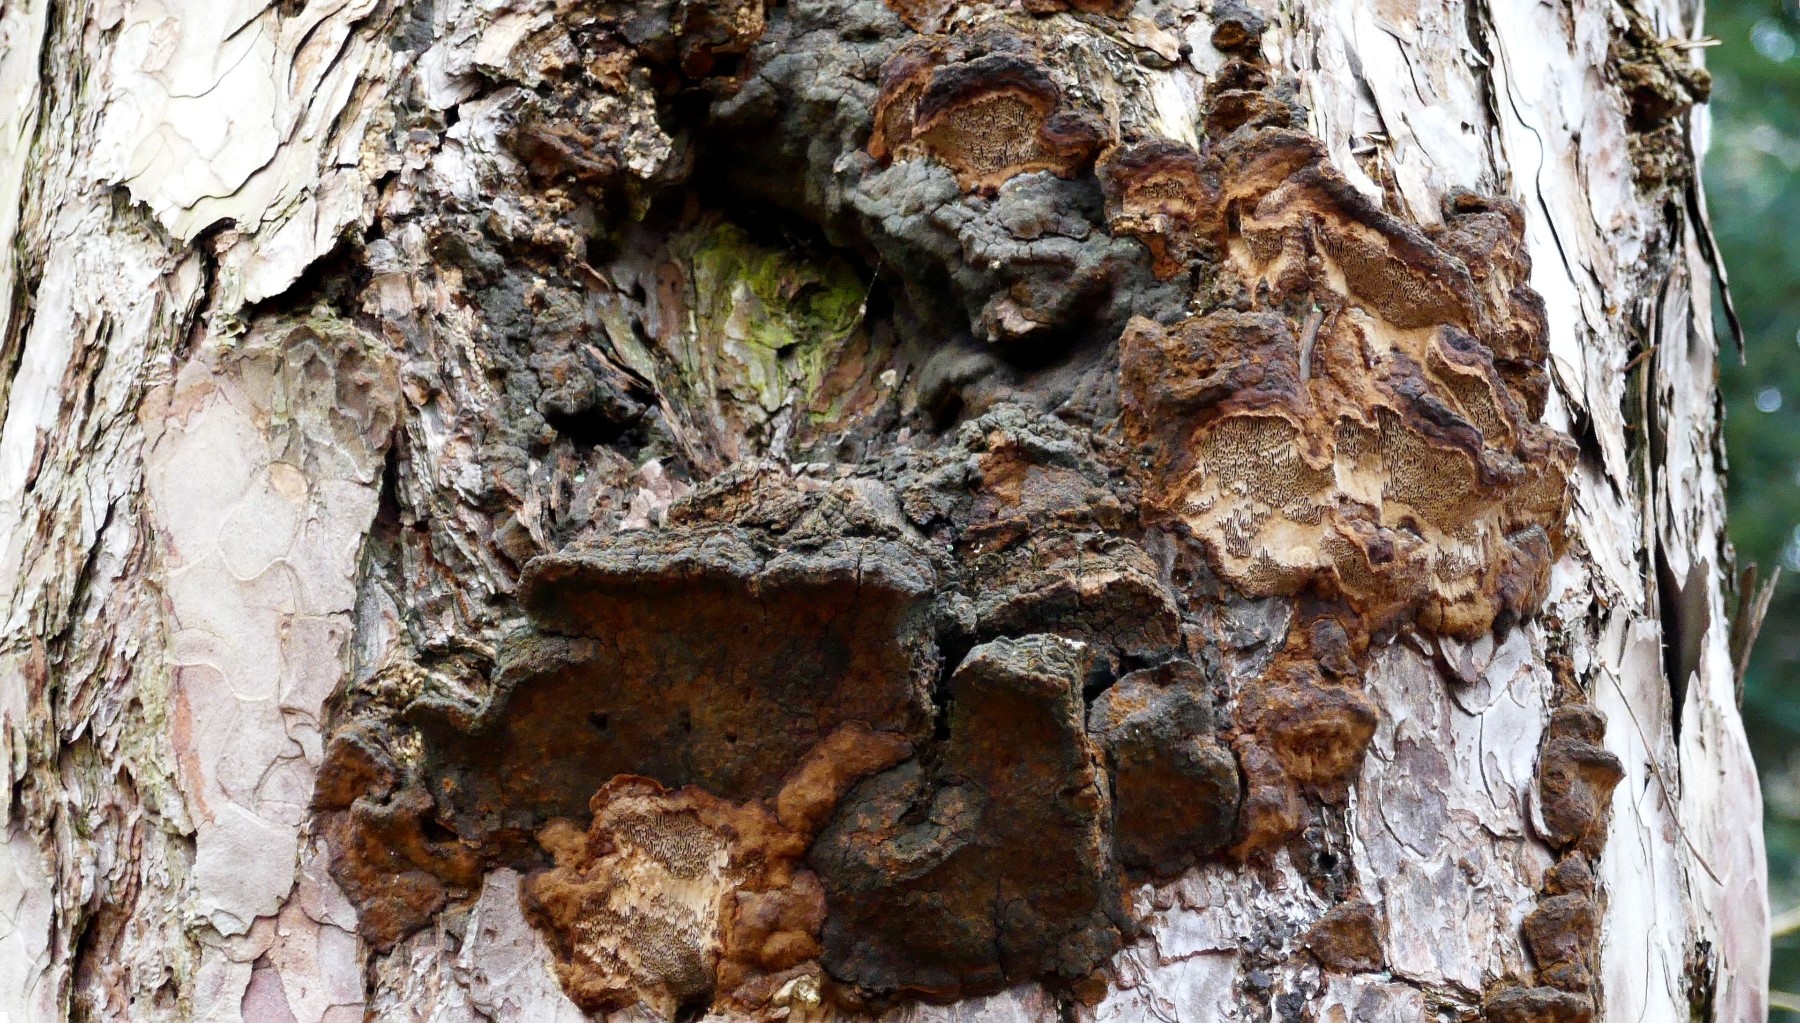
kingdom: Fungi
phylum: Basidiomycota
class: Agaricomycetes
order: Hymenochaetales
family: Hymenochaetaceae
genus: Porodaedalea
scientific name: Porodaedalea pini
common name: fyrre-ildporesvamp
